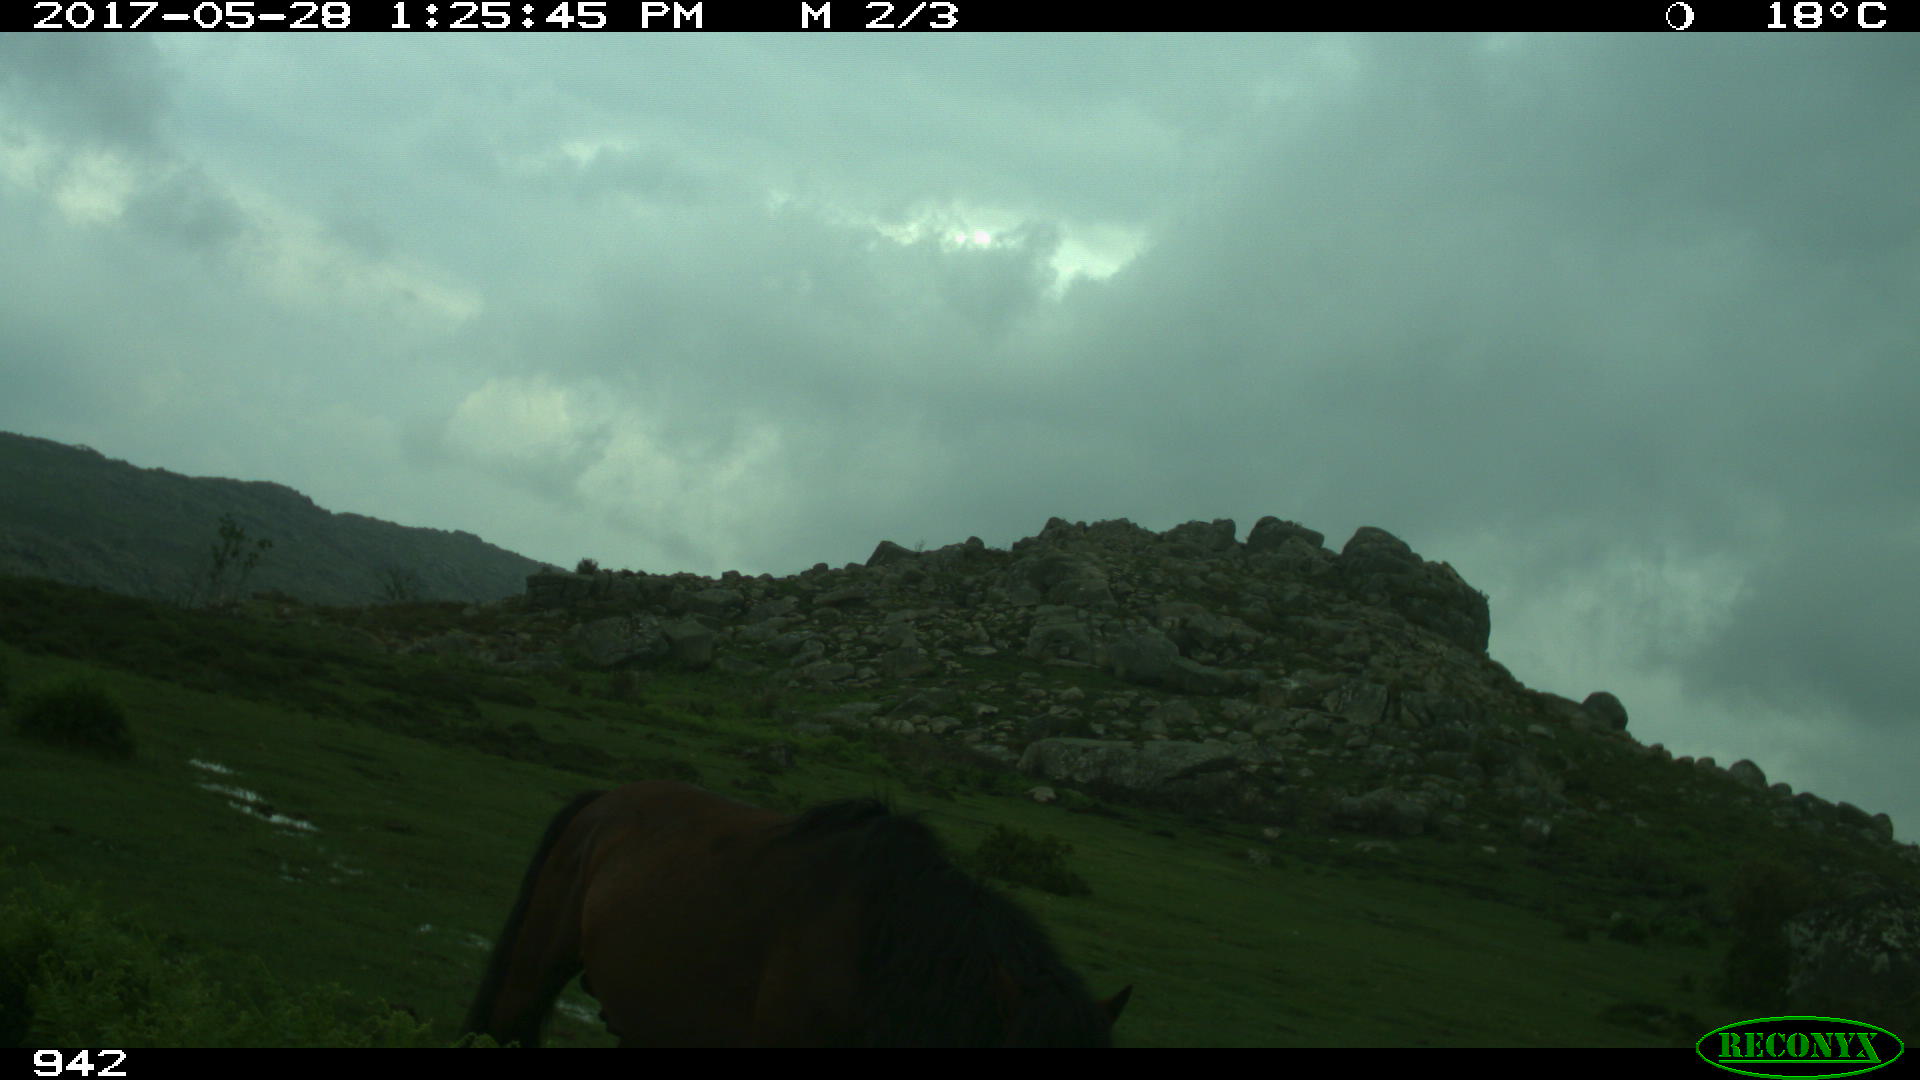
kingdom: Animalia
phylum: Chordata
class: Mammalia
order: Perissodactyla
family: Equidae
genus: Equus
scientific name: Equus caballus
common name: Horse
